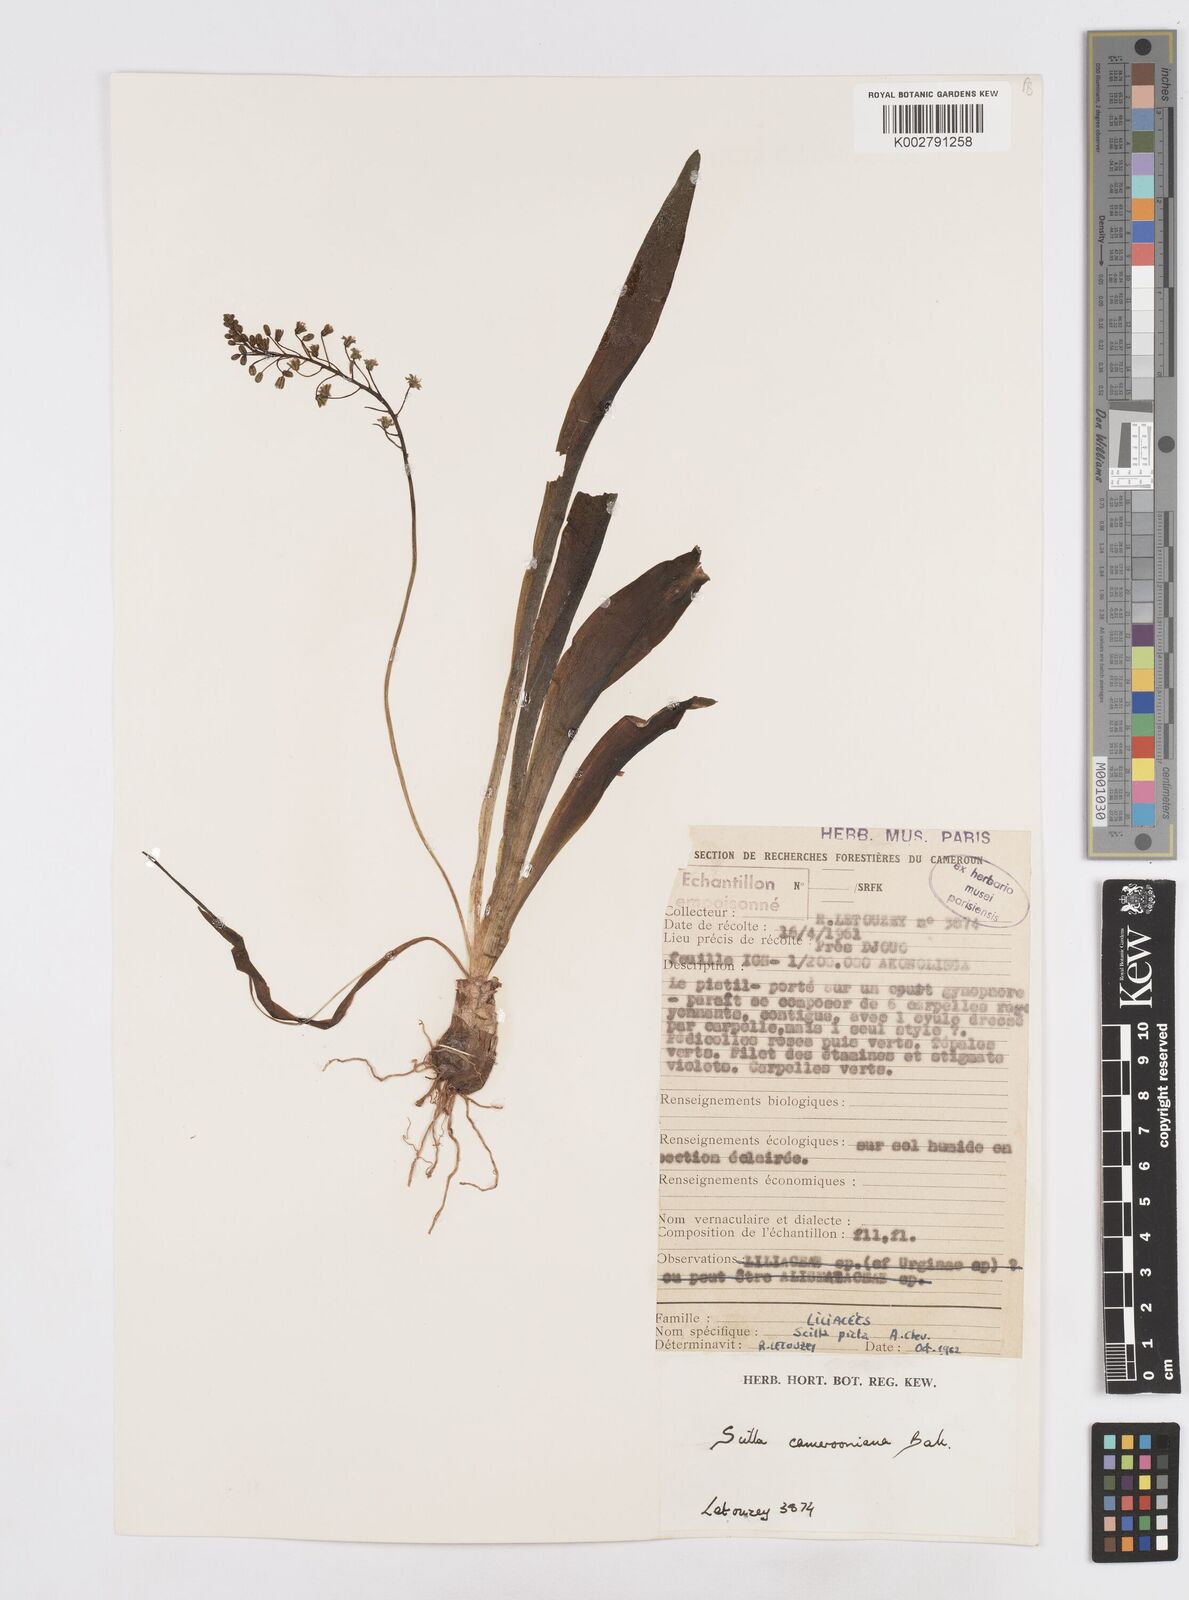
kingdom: Plantae
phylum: Tracheophyta
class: Liliopsida
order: Asparagales
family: Asparagaceae
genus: Ledebouria
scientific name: Ledebouria camerooniana
